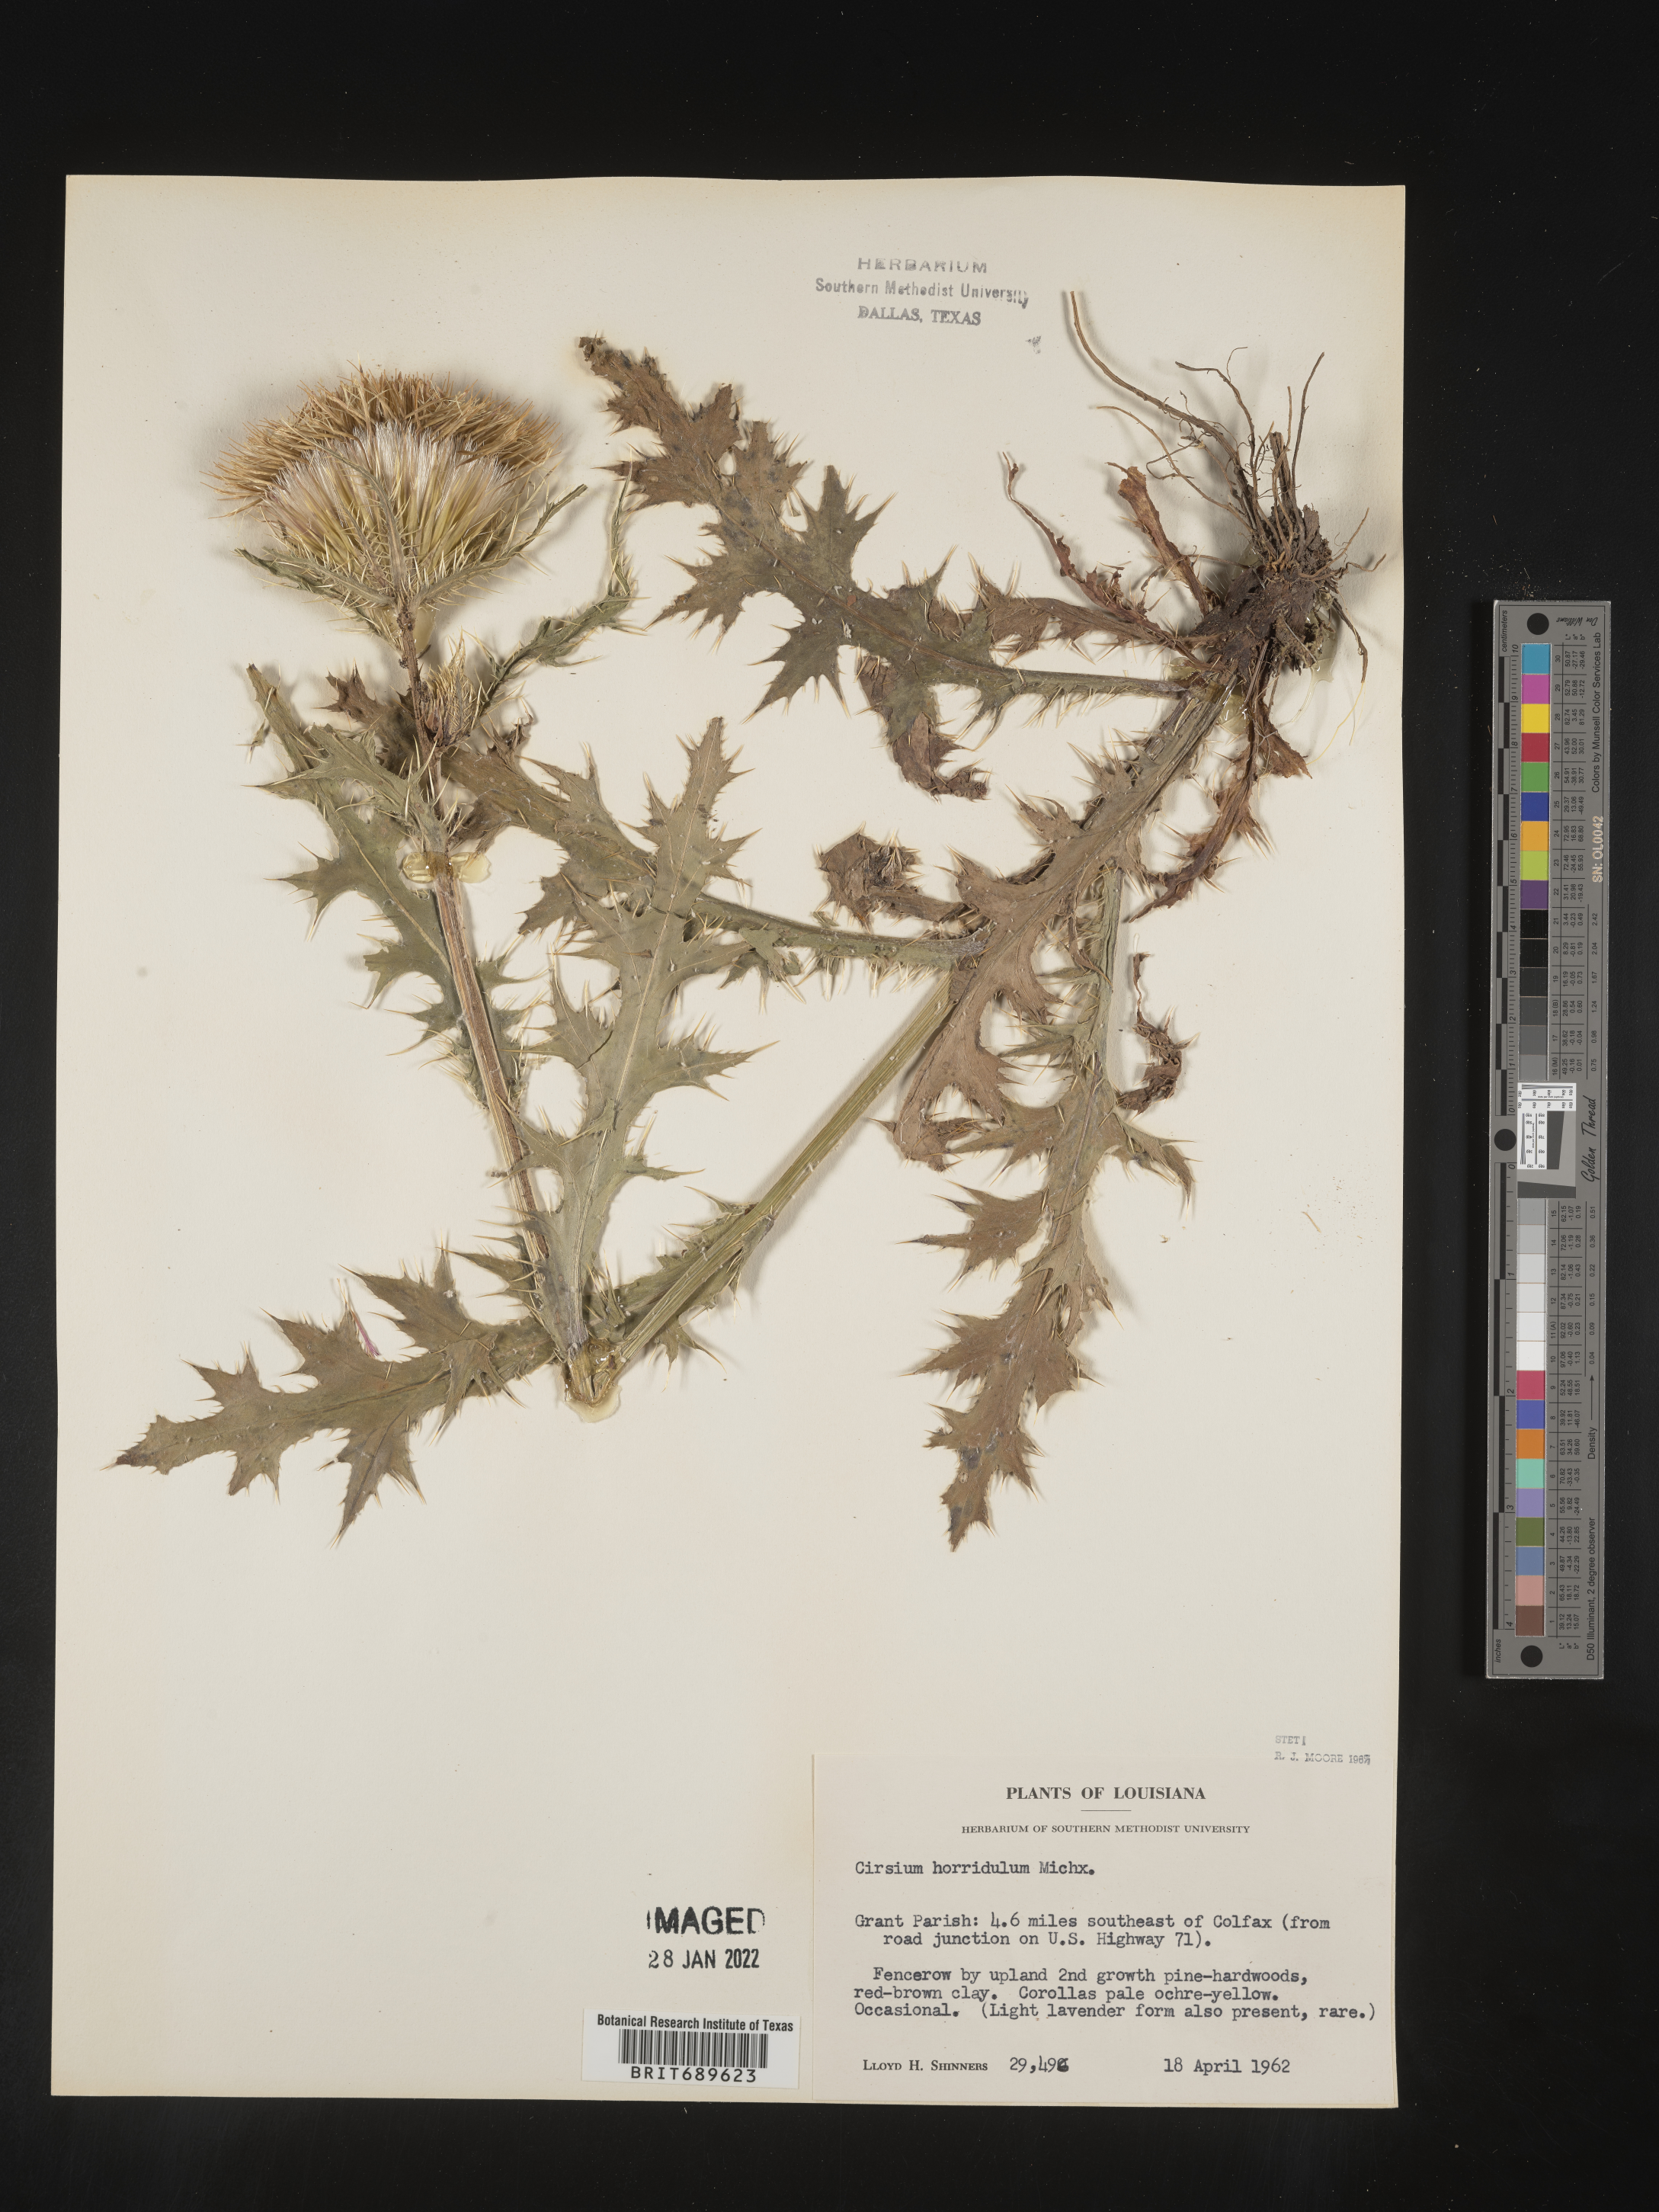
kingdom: Plantae
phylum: Tracheophyta
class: Magnoliopsida
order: Asterales
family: Asteraceae
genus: Cirsium
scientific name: Cirsium horridulum
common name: Bristly thistle
